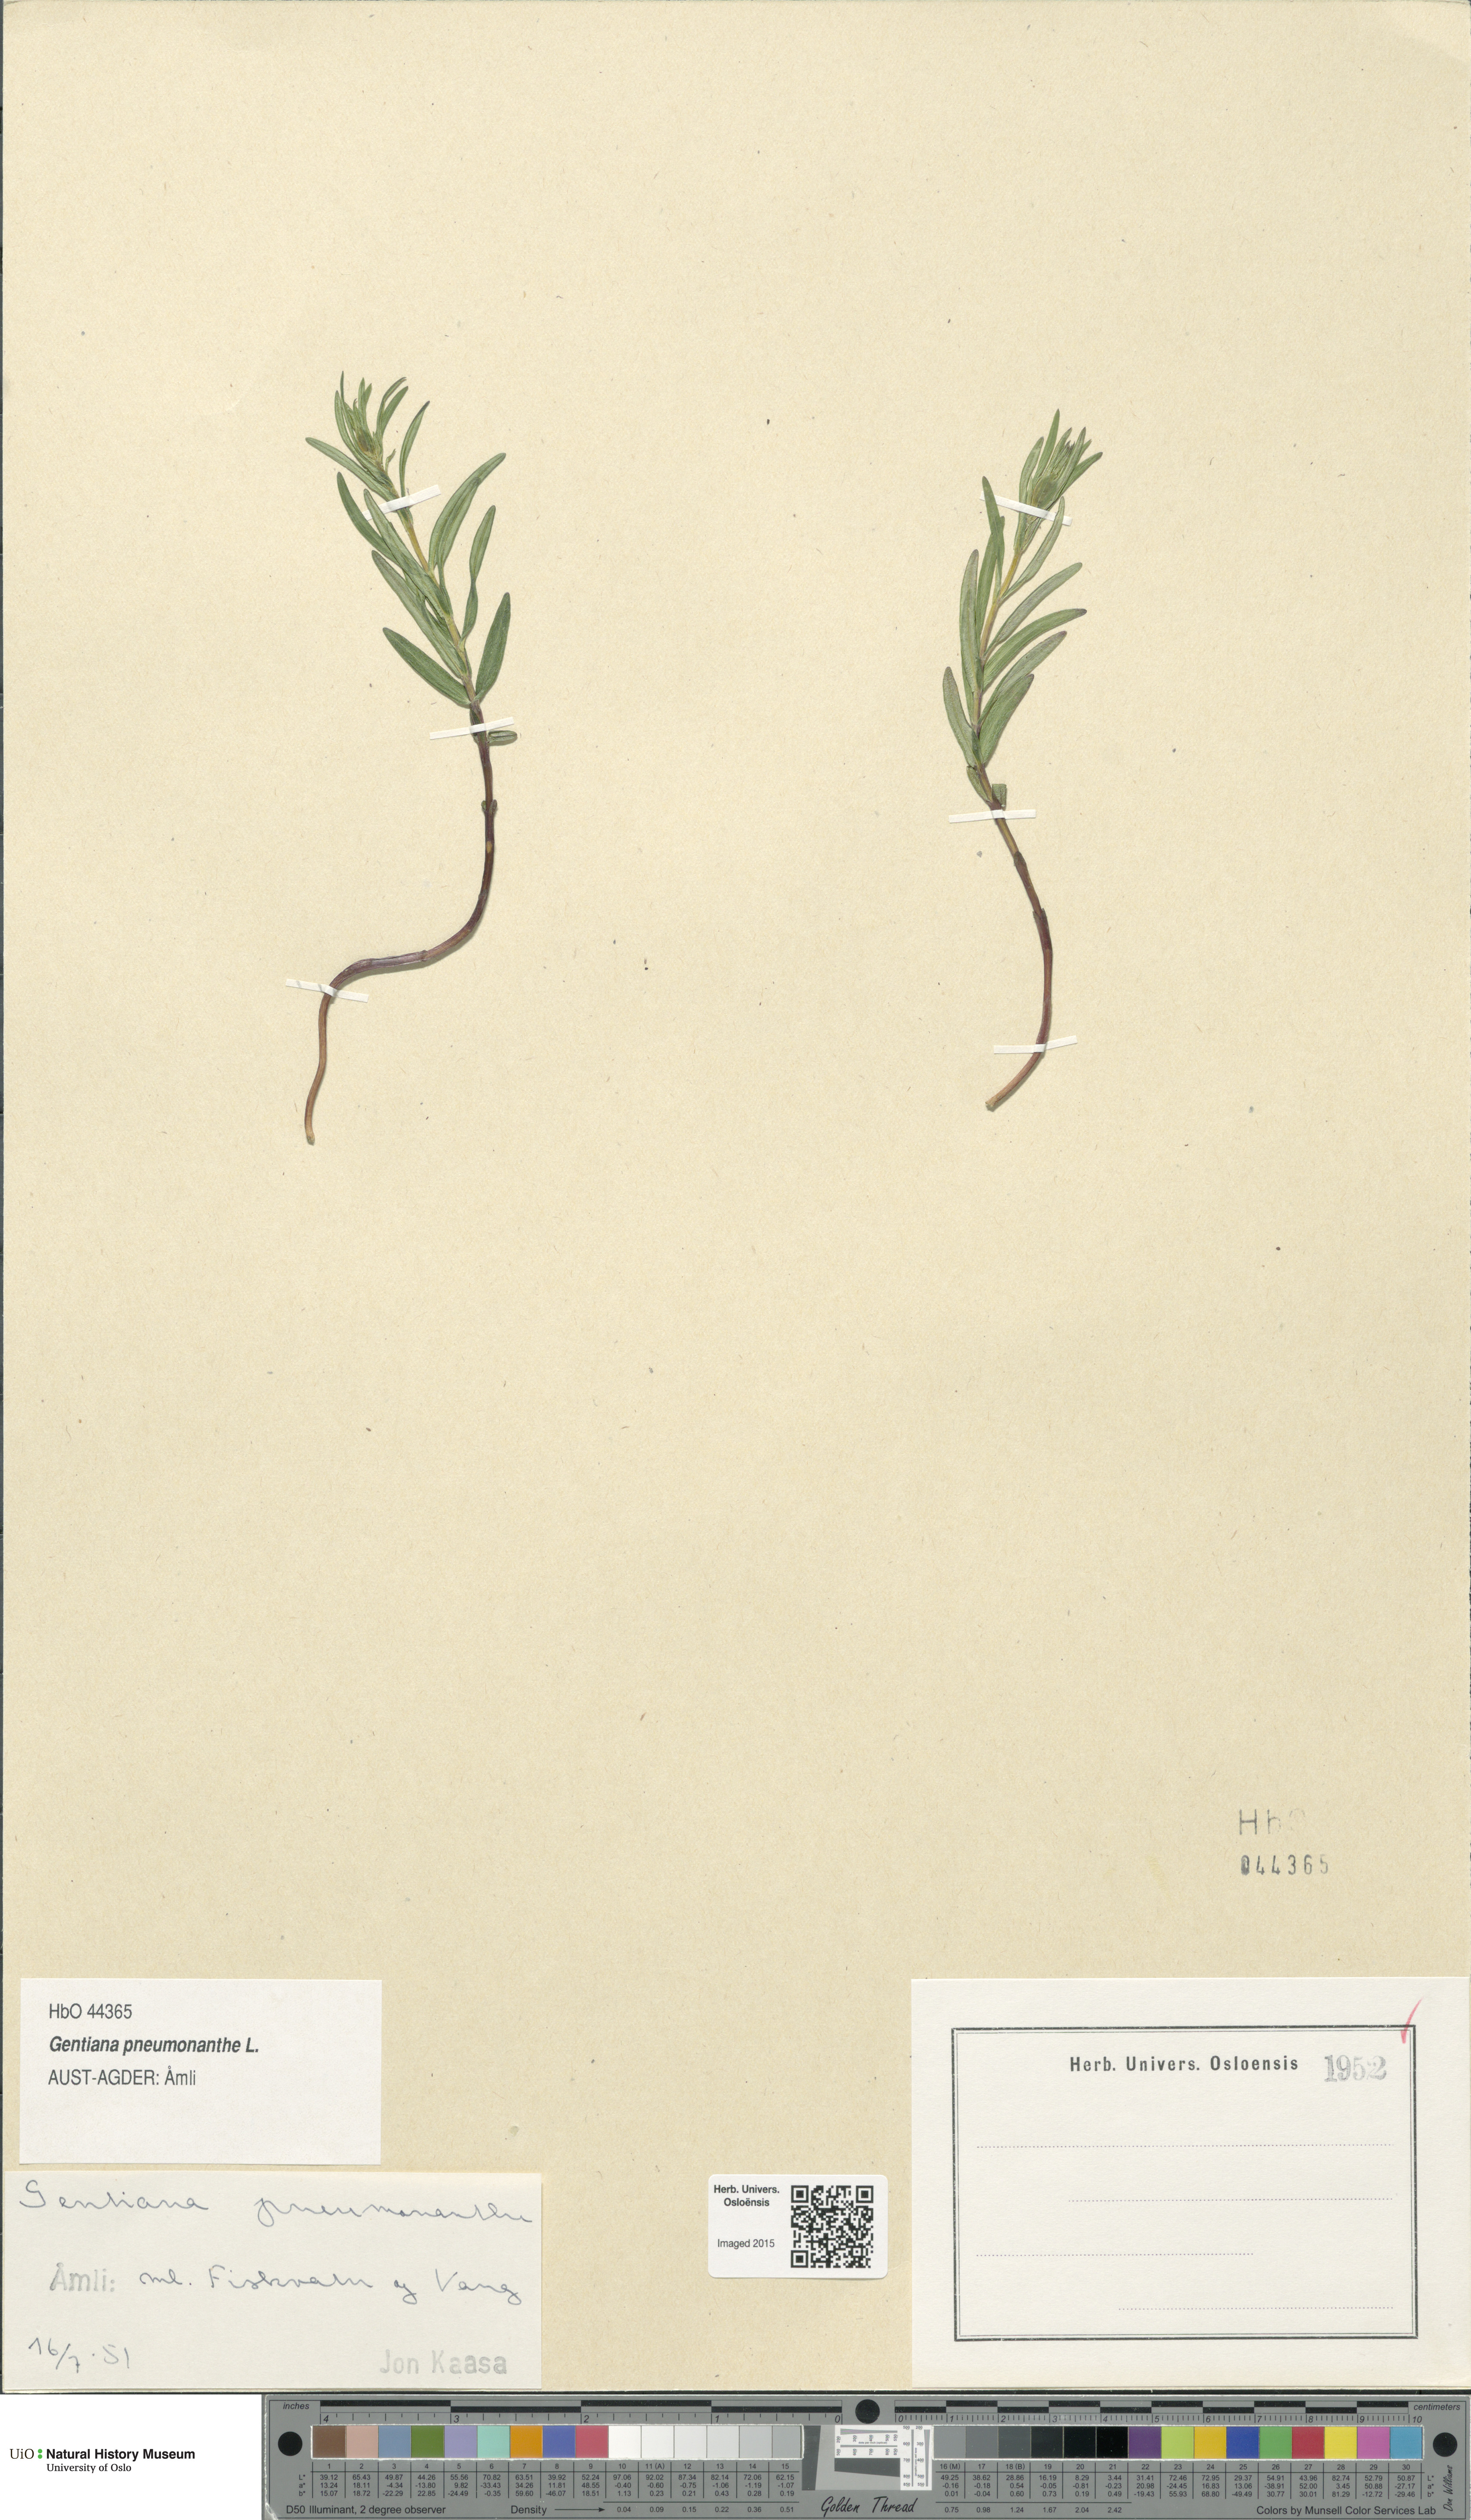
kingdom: Plantae
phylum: Tracheophyta
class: Magnoliopsida
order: Gentianales
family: Gentianaceae
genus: Gentiana
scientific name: Gentiana pneumonanthe
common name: Marsh gentian
